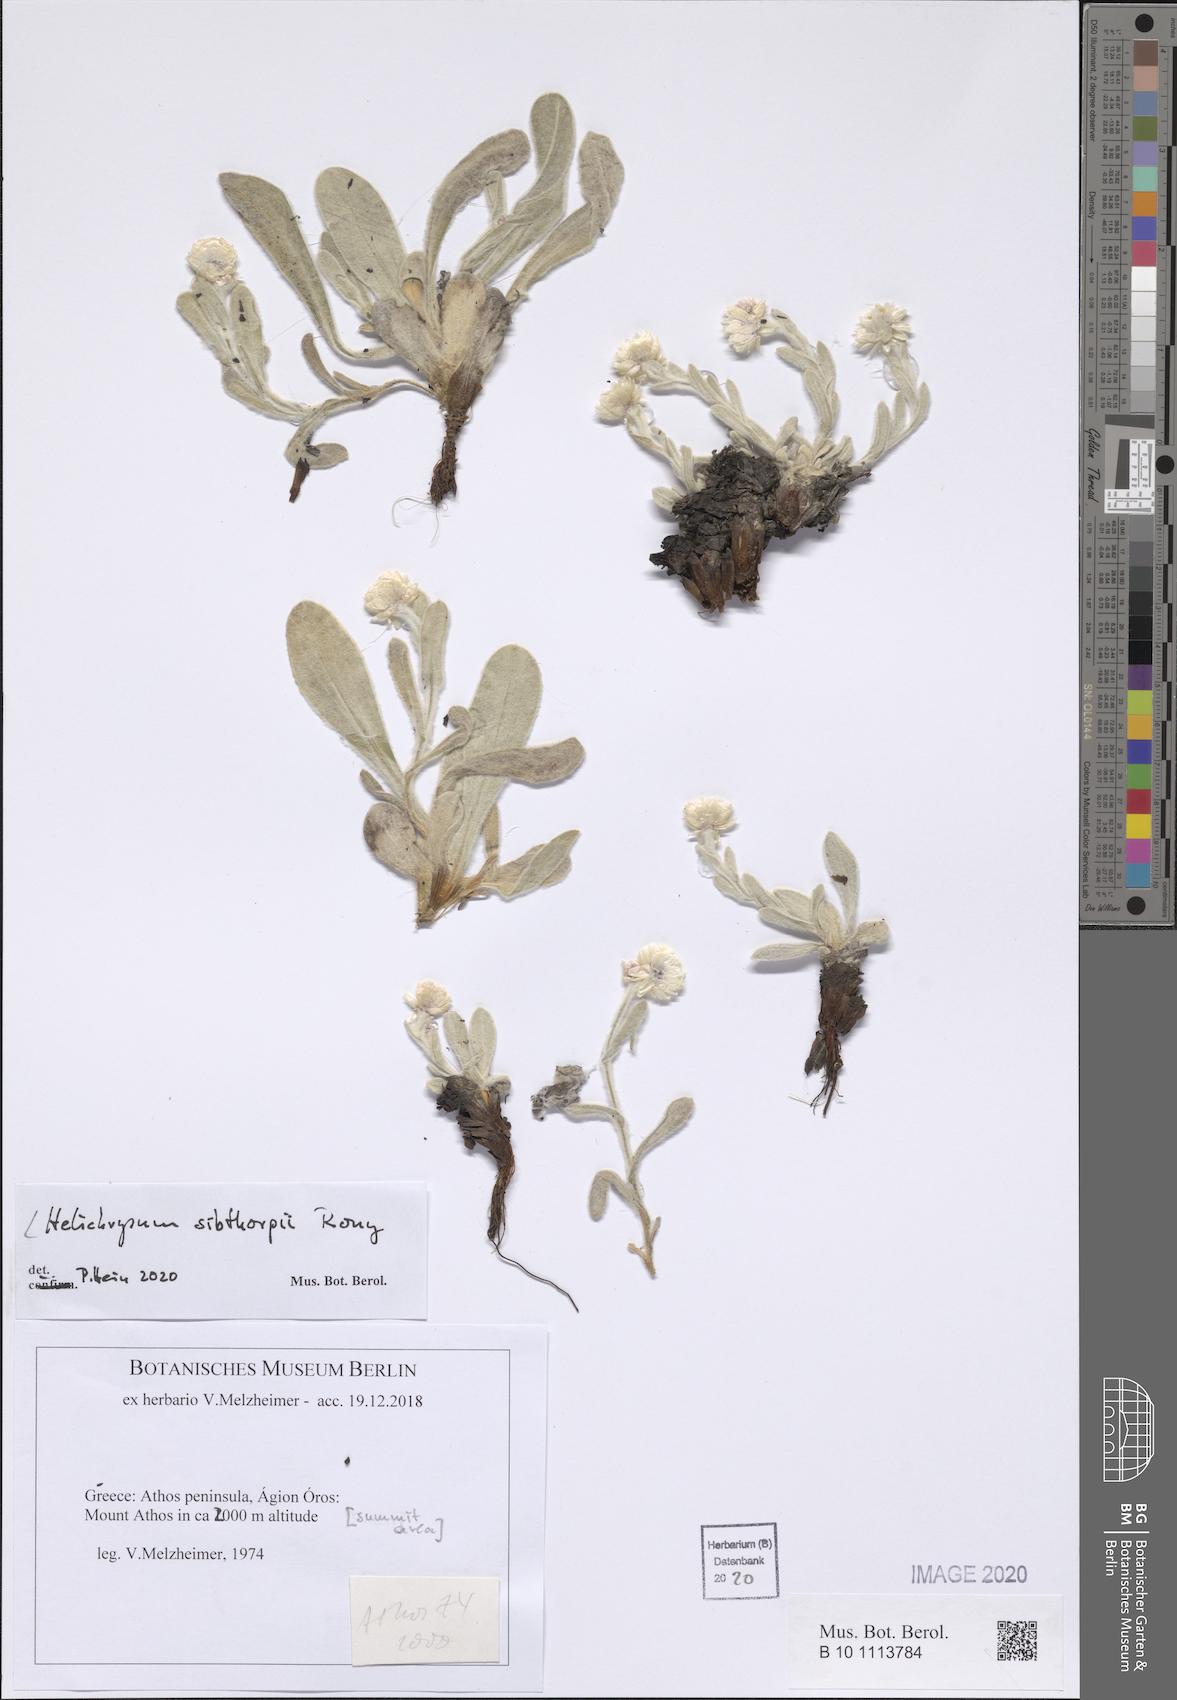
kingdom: Plantae
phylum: Tracheophyta
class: Magnoliopsida
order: Asterales
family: Asteraceae
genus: Helichrysum
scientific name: Helichrysum sibthorpii
